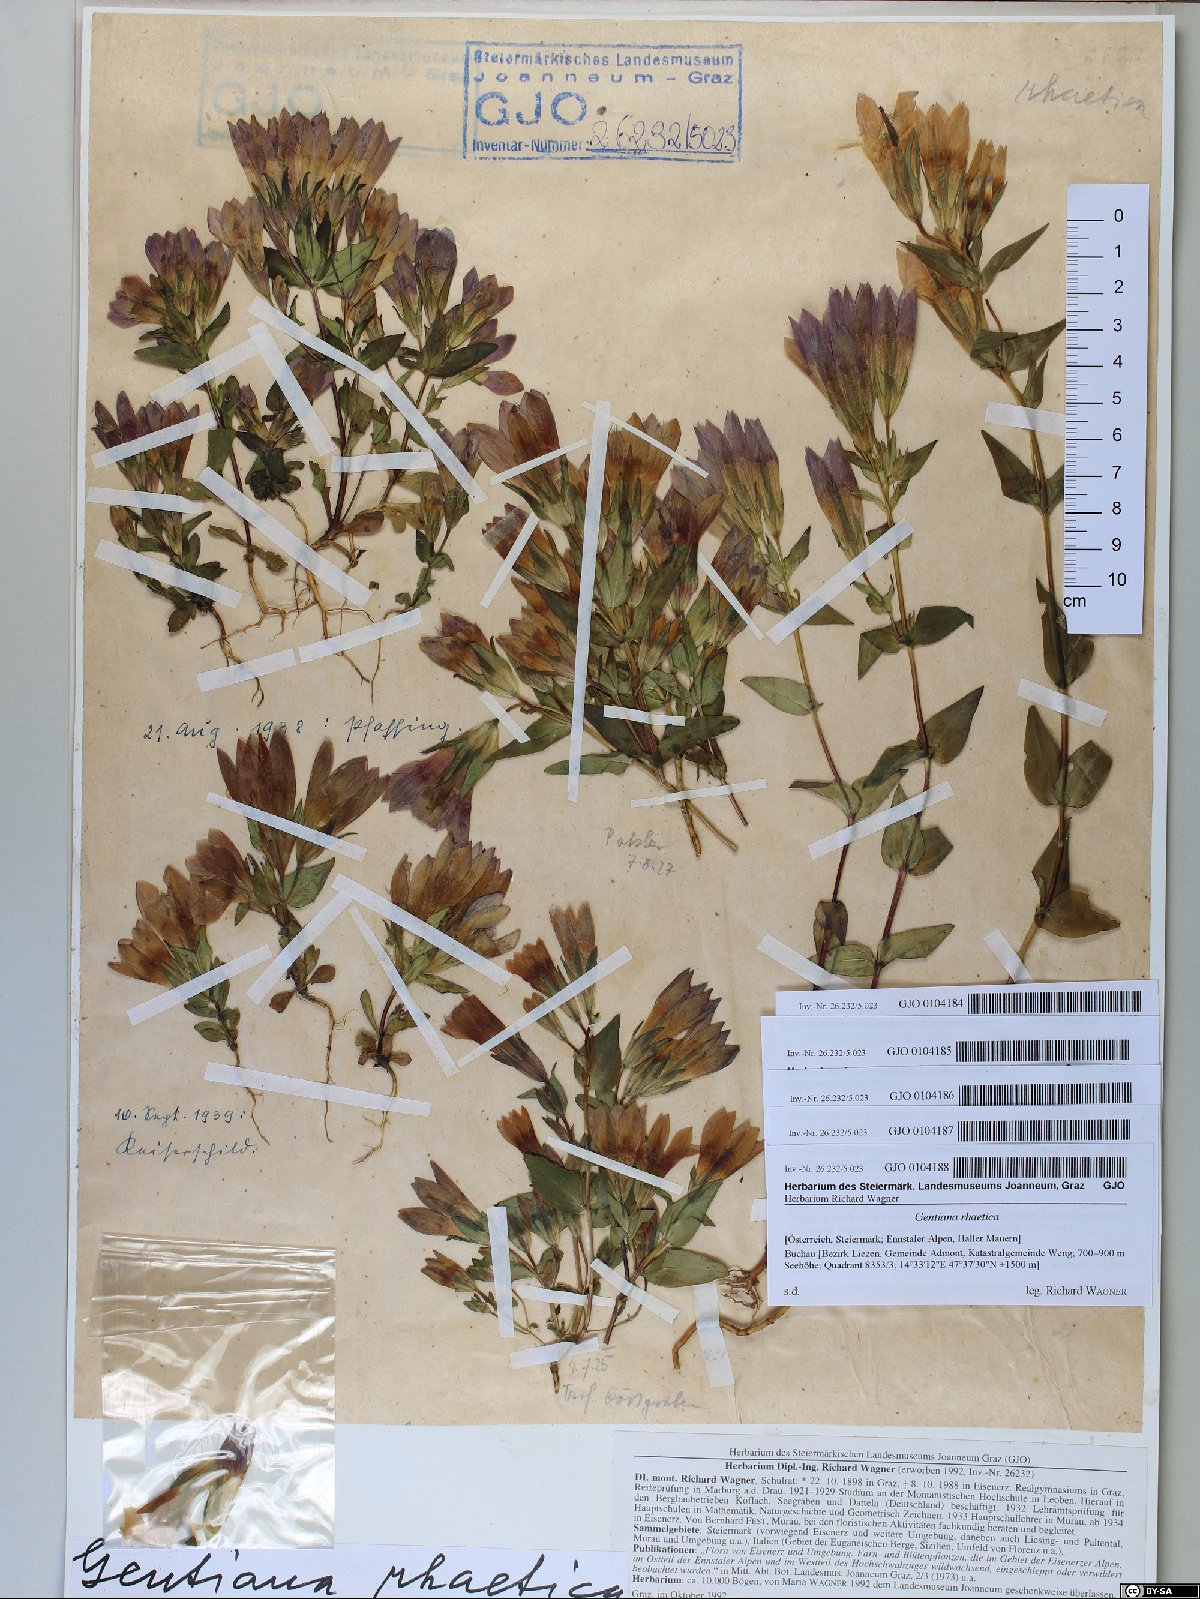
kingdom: Plantae
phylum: Tracheophyta
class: Magnoliopsida
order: Gentianales
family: Gentianaceae
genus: Gentianella
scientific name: Gentianella rhaetica
